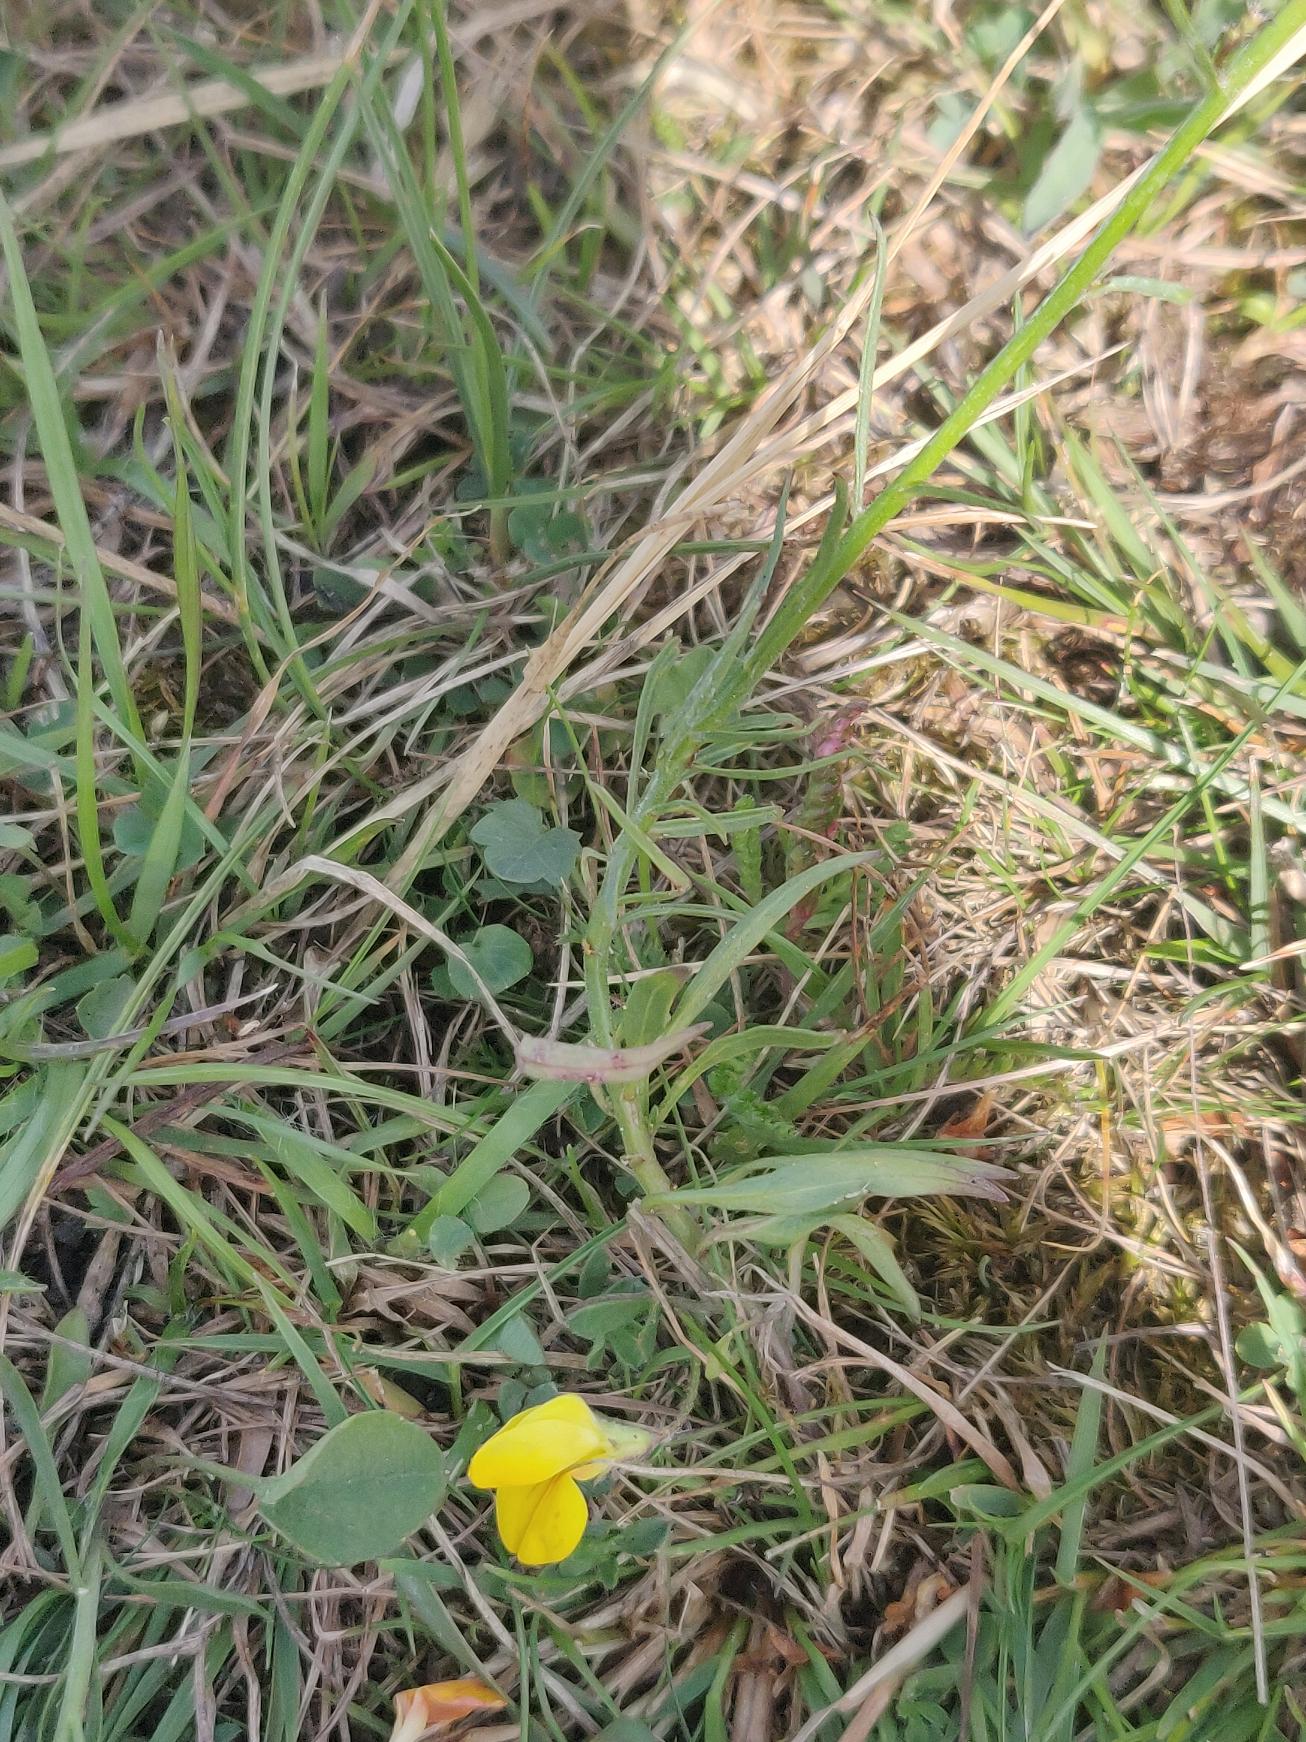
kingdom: Plantae
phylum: Tracheophyta
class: Magnoliopsida
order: Asterales
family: Campanulaceae
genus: Campanula
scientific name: Campanula rotundifolia
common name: Liden klokke
